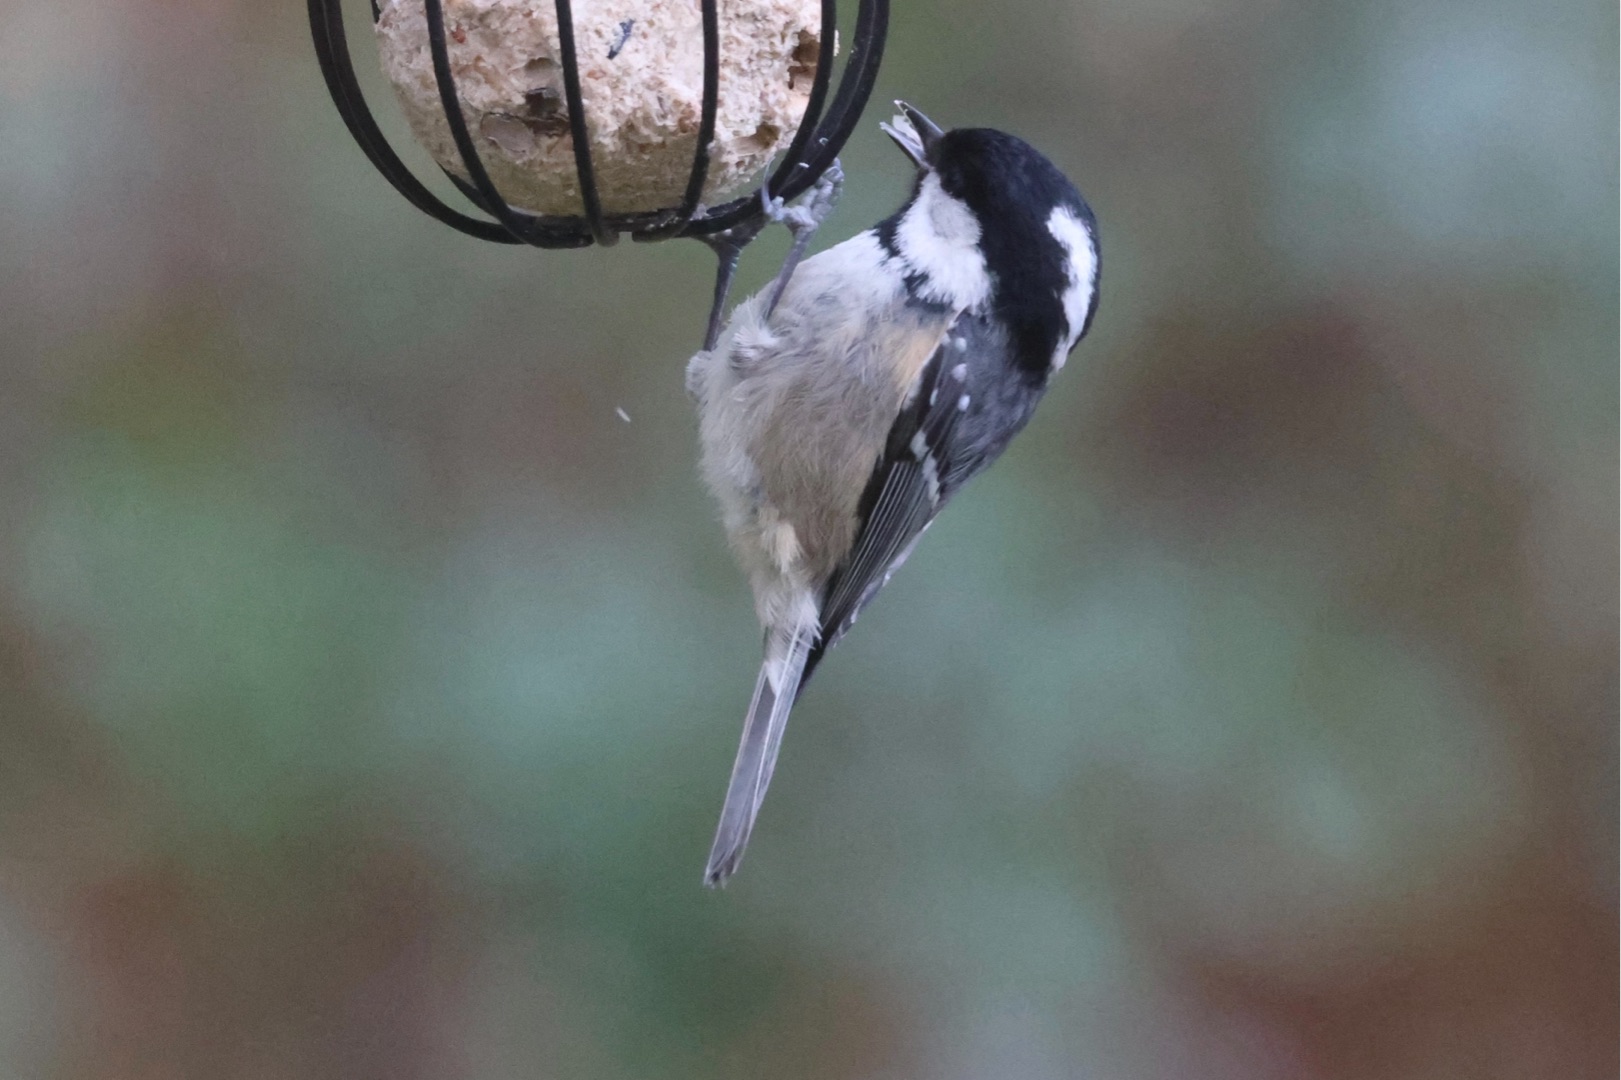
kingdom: Animalia
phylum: Chordata
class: Aves
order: Passeriformes
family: Paridae
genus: Periparus
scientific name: Periparus ater
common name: Sortmejse
